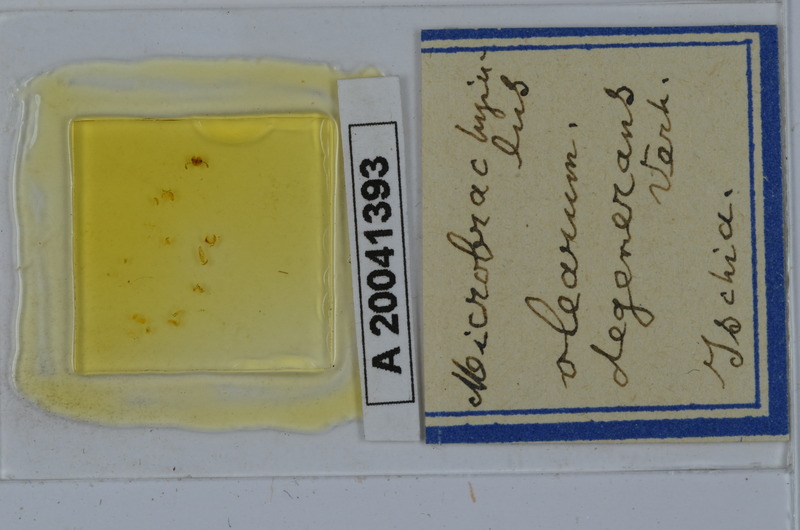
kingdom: Animalia
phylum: Arthropoda
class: Diplopoda
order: Julida
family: Julidae
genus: Microbrachyiulus
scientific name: Microbrachyiulus olearum
